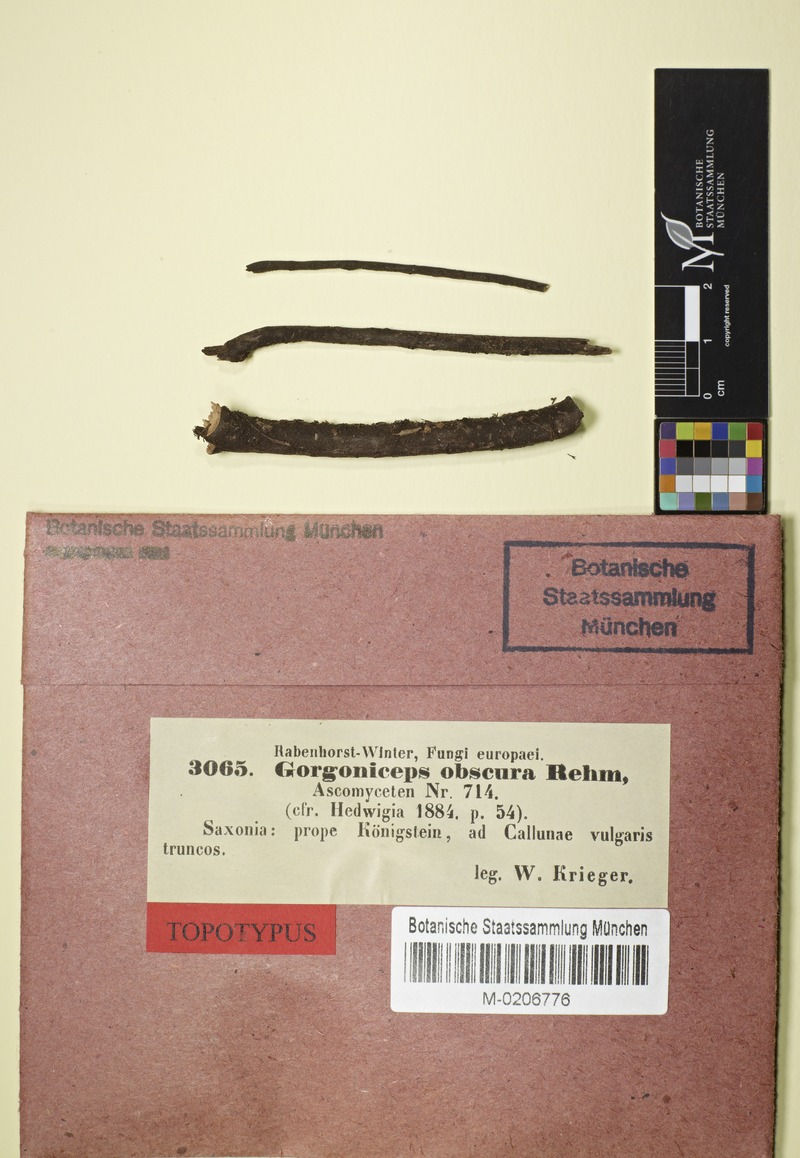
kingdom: Fungi
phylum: Ascomycota
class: Leotiomycetes
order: Helotiales
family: Mollisiaceae
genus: Mollisia
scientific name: Mollisia obscura
